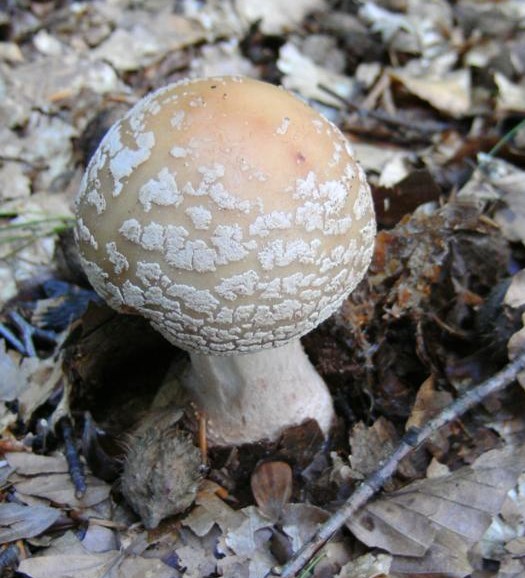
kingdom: Fungi
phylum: Basidiomycota
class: Agaricomycetes
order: Agaricales
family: Amanitaceae
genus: Amanita
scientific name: Amanita rubescens
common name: rødmende fluesvamp
